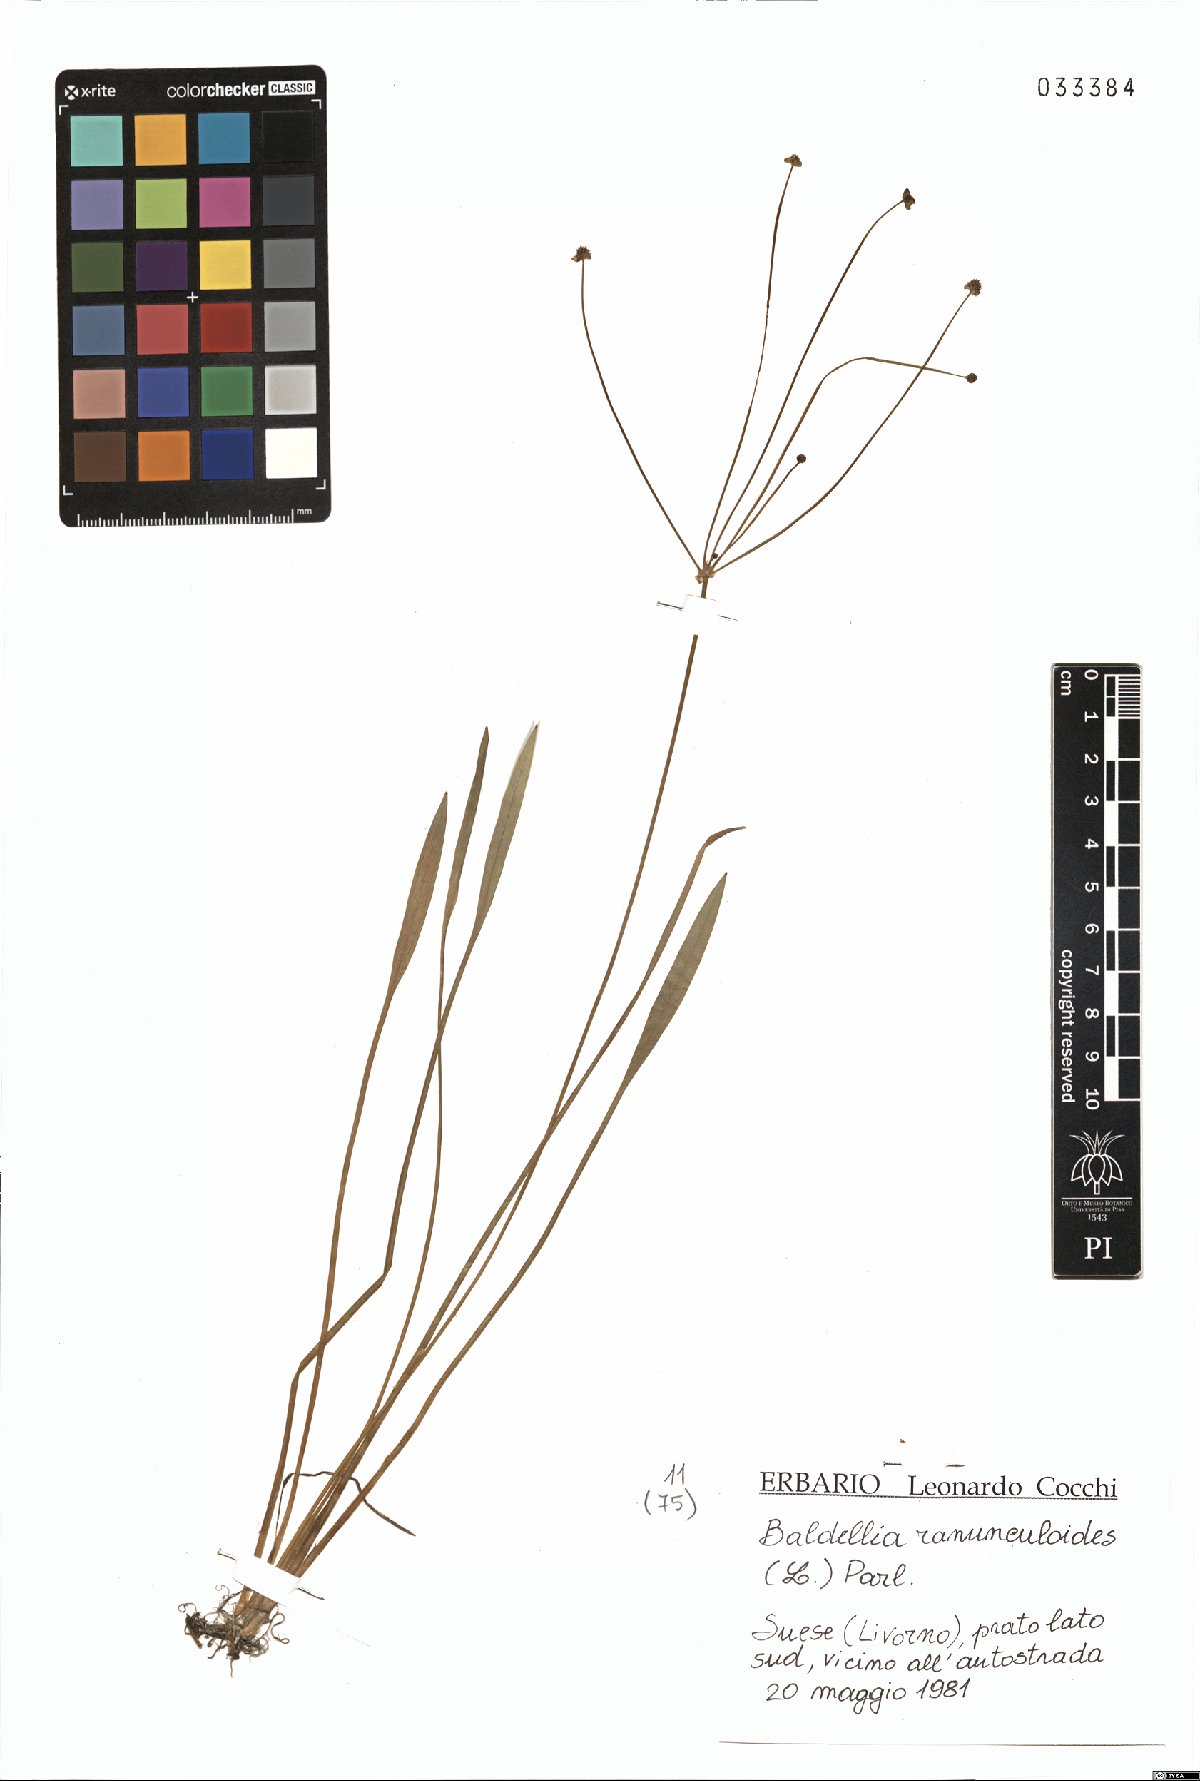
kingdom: Plantae
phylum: Tracheophyta
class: Liliopsida
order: Alismatales
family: Alismataceae
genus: Baldellia
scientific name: Baldellia ranunculoides
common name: Lesser water-plantain
